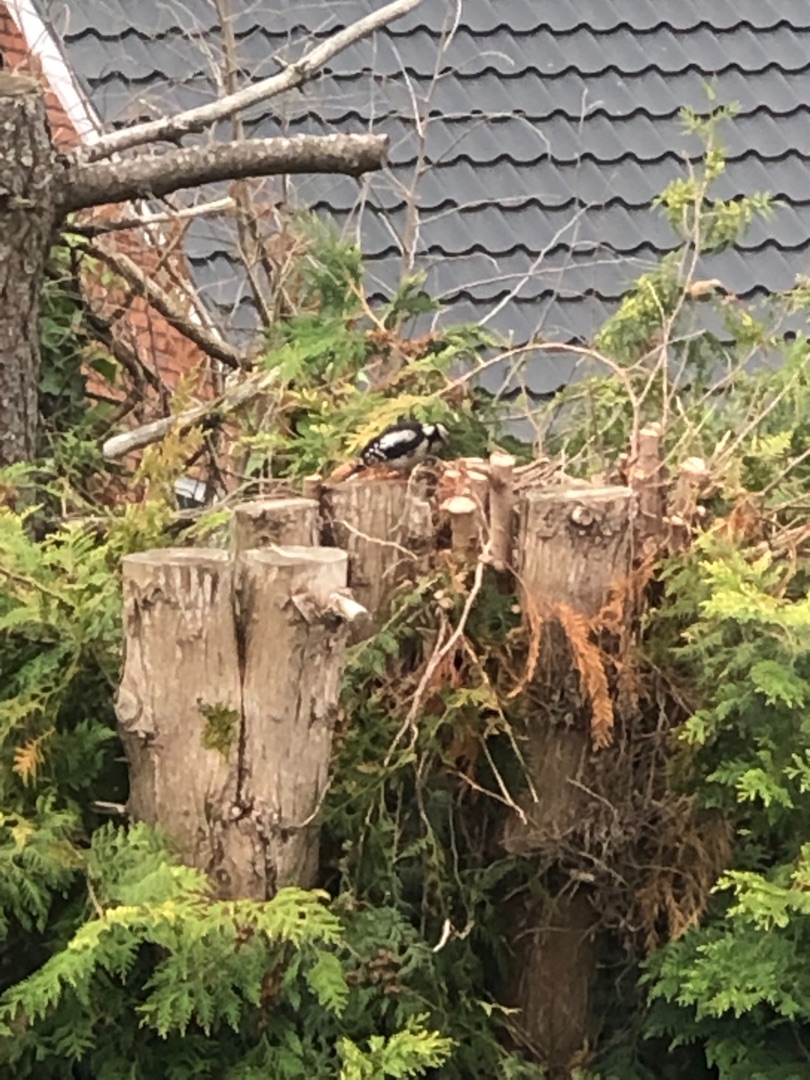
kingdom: Animalia
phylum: Chordata
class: Aves
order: Piciformes
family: Picidae
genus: Dendrocopos
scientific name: Dendrocopos major
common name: Stor flagspætte
